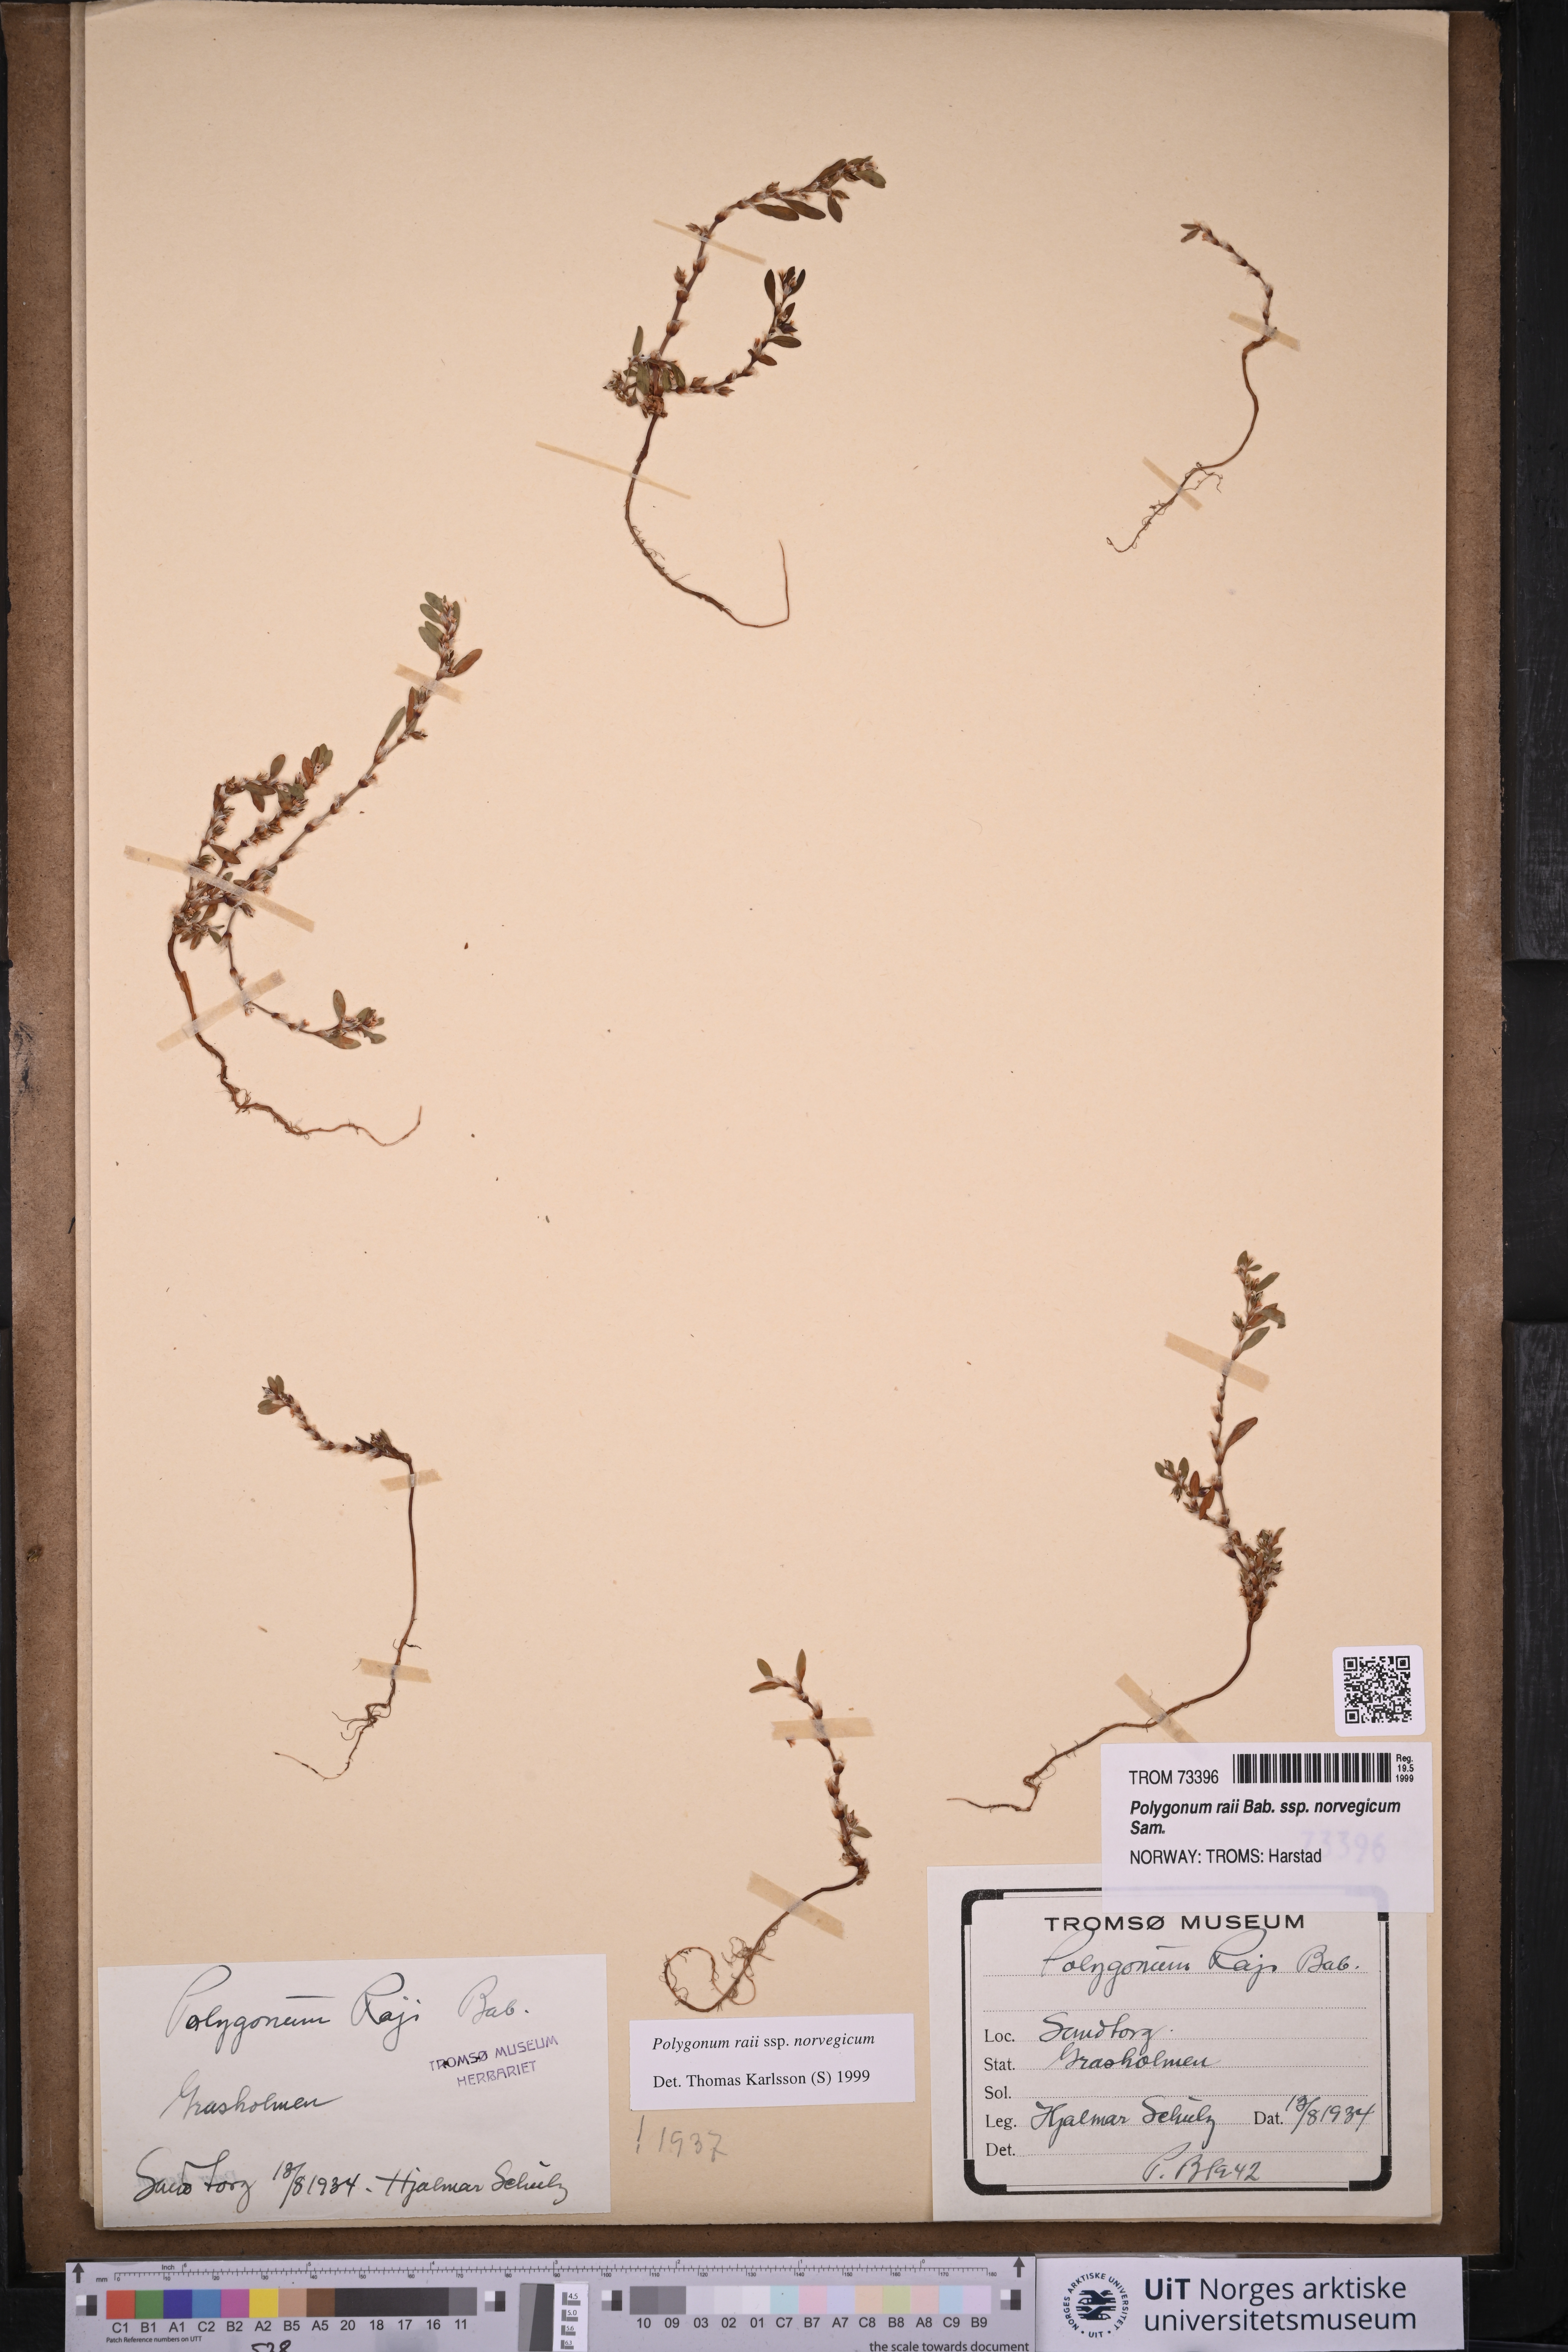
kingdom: Plantae
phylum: Tracheophyta
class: Magnoliopsida
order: Caryophyllales
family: Polygonaceae
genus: Polygonum
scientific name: Polygonum norvegicum
